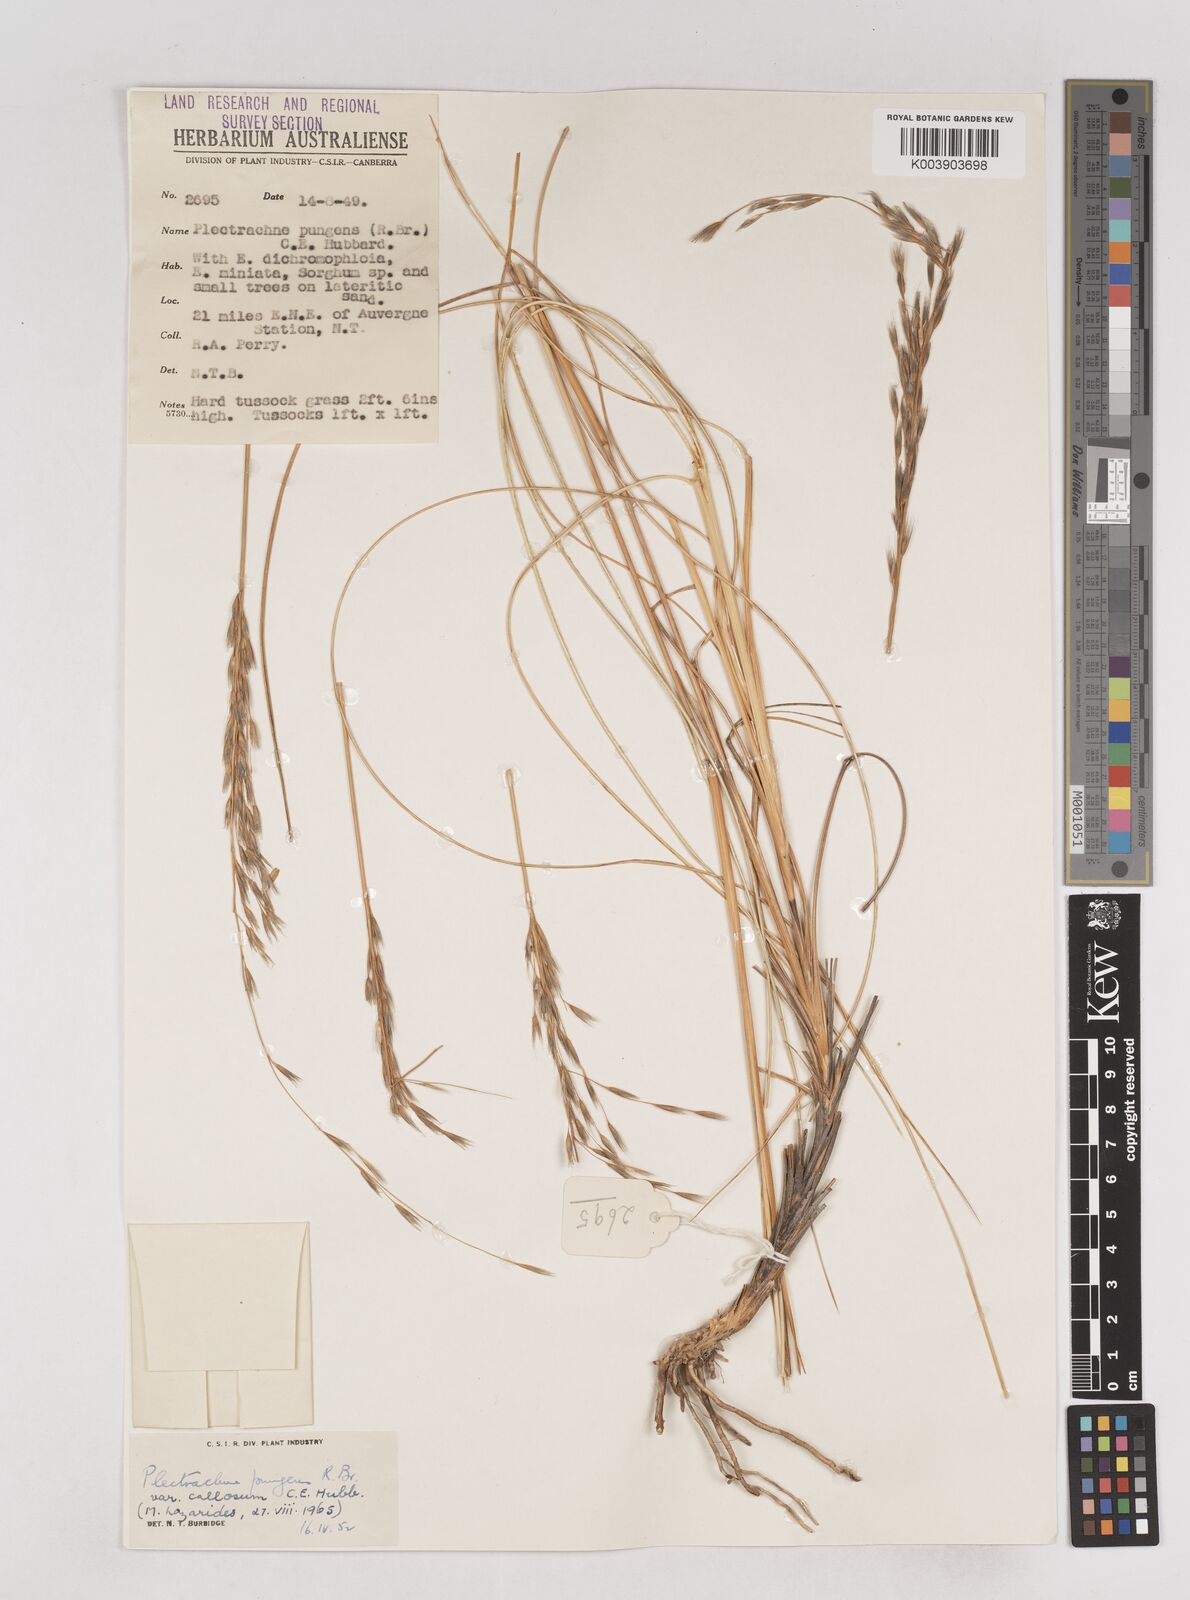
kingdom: Plantae
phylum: Tracheophyta
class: Liliopsida
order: Poales
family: Poaceae
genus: Triodia
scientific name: Triodia bitextura
